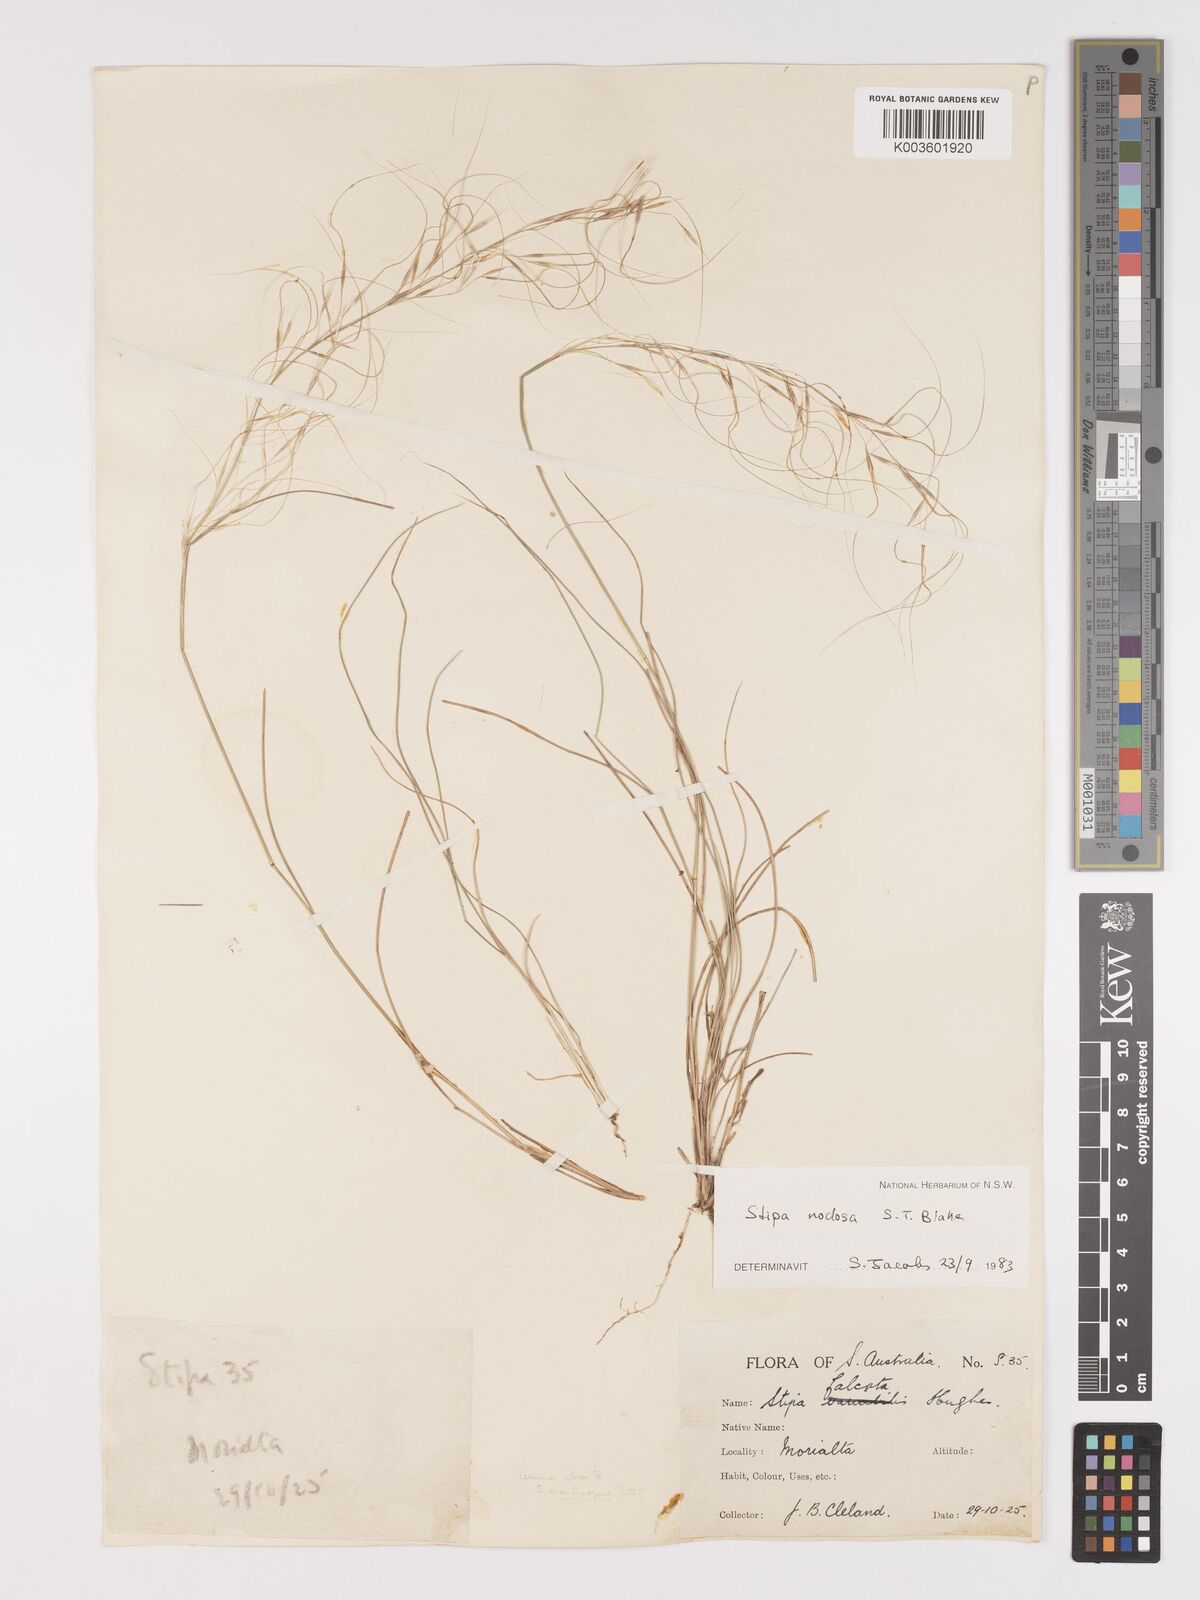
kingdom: Plantae
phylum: Tracheophyta
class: Liliopsida
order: Poales
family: Poaceae
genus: Austrostipa
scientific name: Austrostipa nodosa
